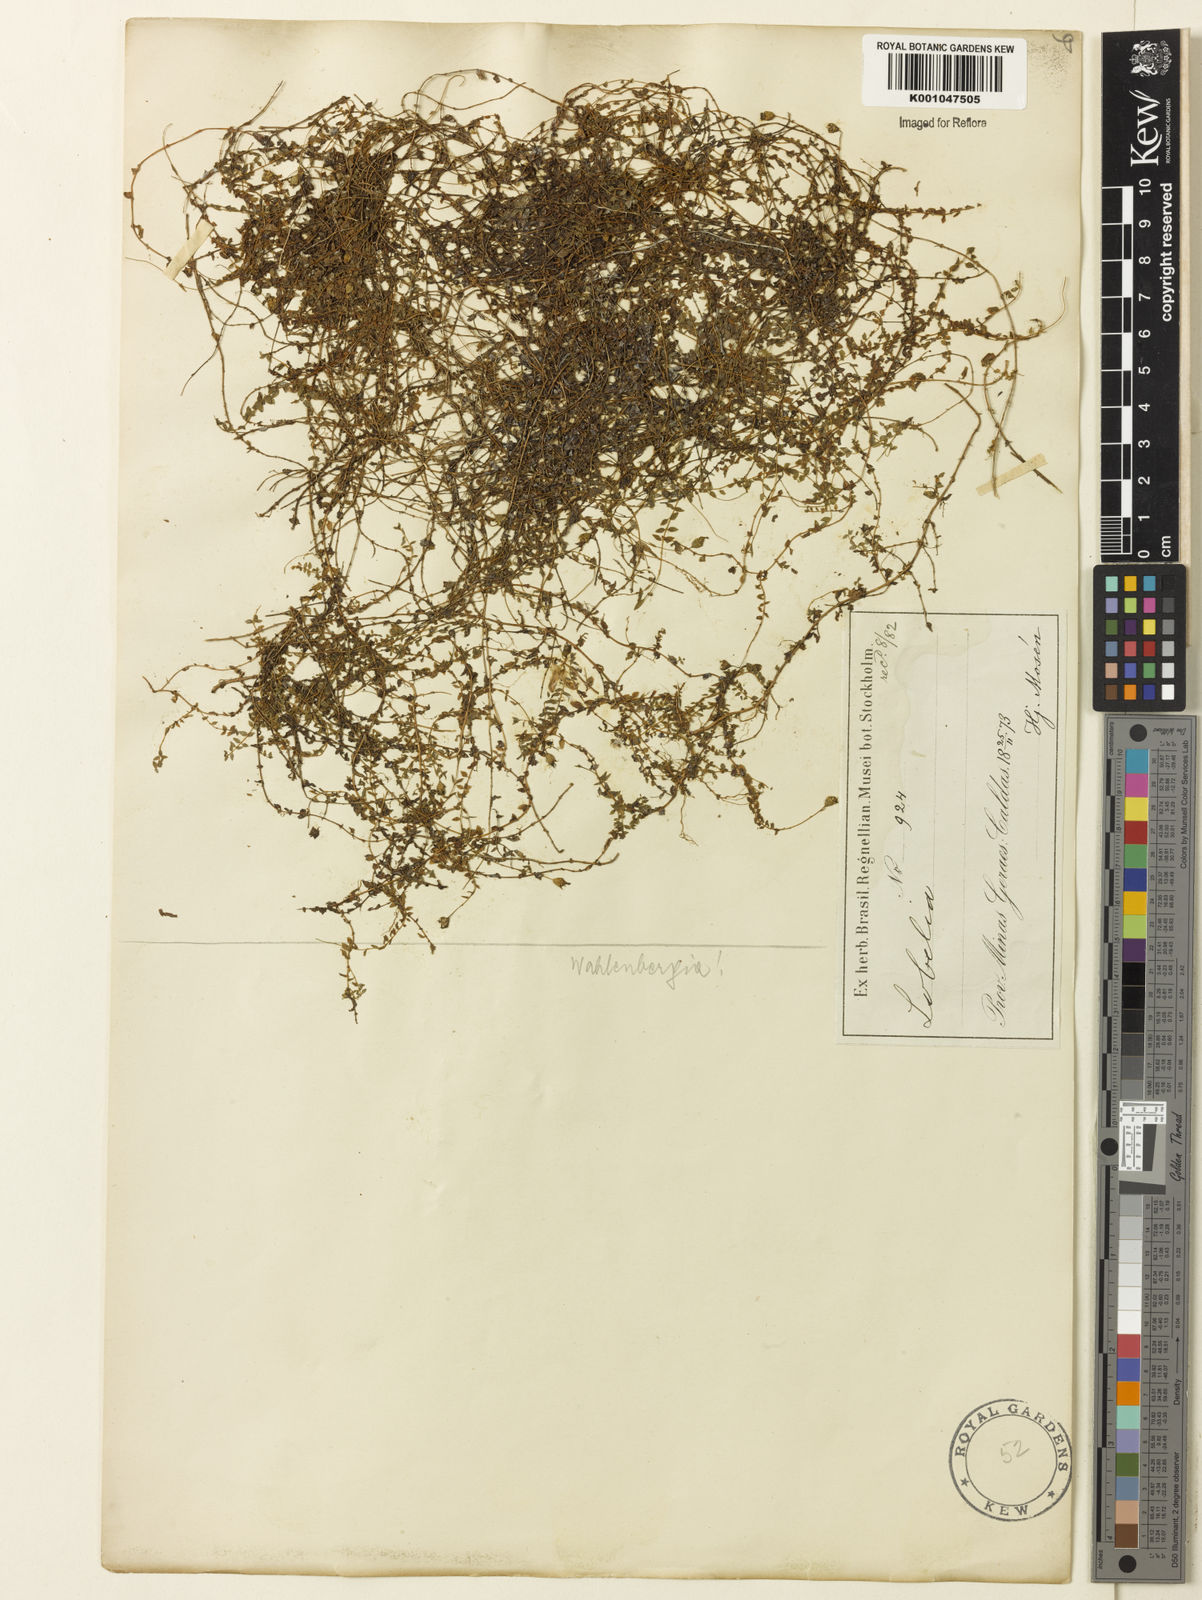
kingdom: Plantae
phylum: Tracheophyta
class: Magnoliopsida
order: Asterales
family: Campanulaceae
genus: Wahlenbergia
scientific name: Wahlenbergia
